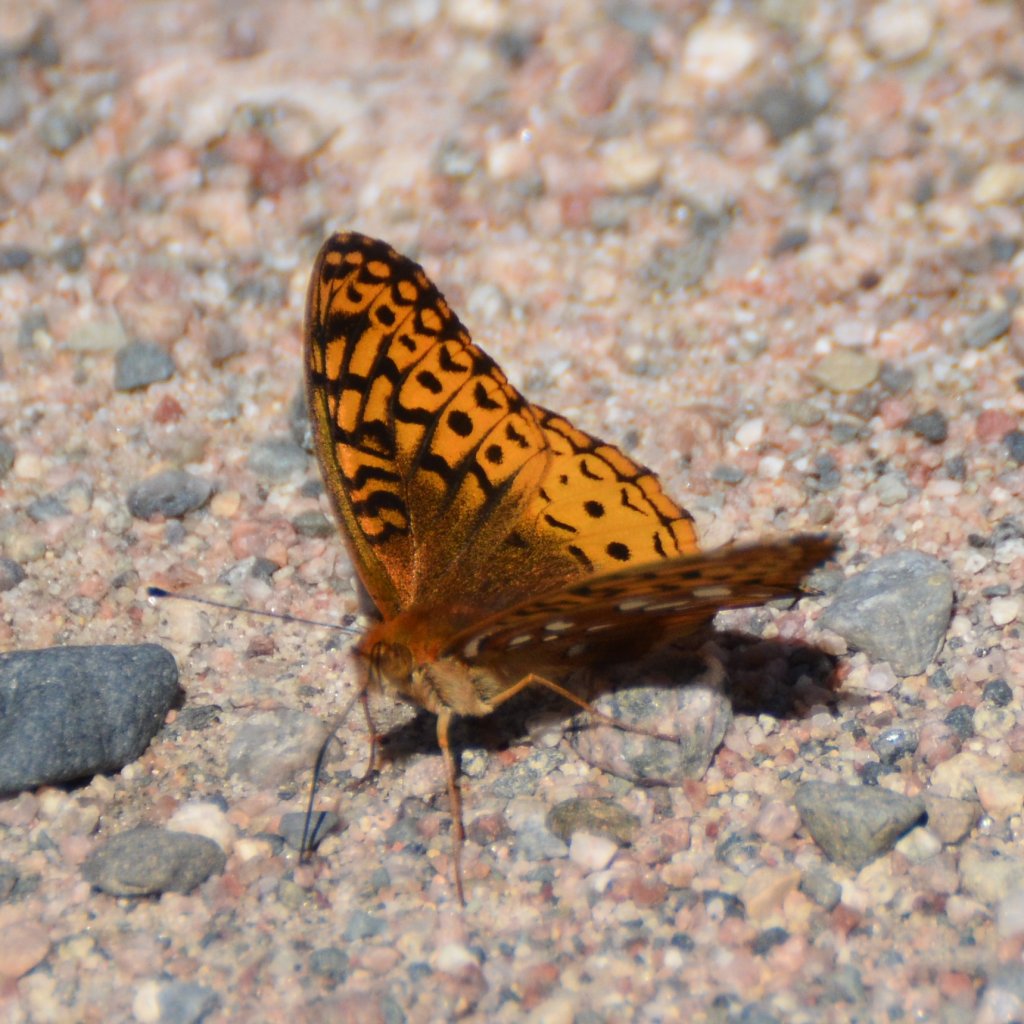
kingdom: Animalia
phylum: Arthropoda
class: Insecta
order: Lepidoptera
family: Nymphalidae
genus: Speyeria
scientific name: Speyeria cybele
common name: Great Spangled Fritillary
